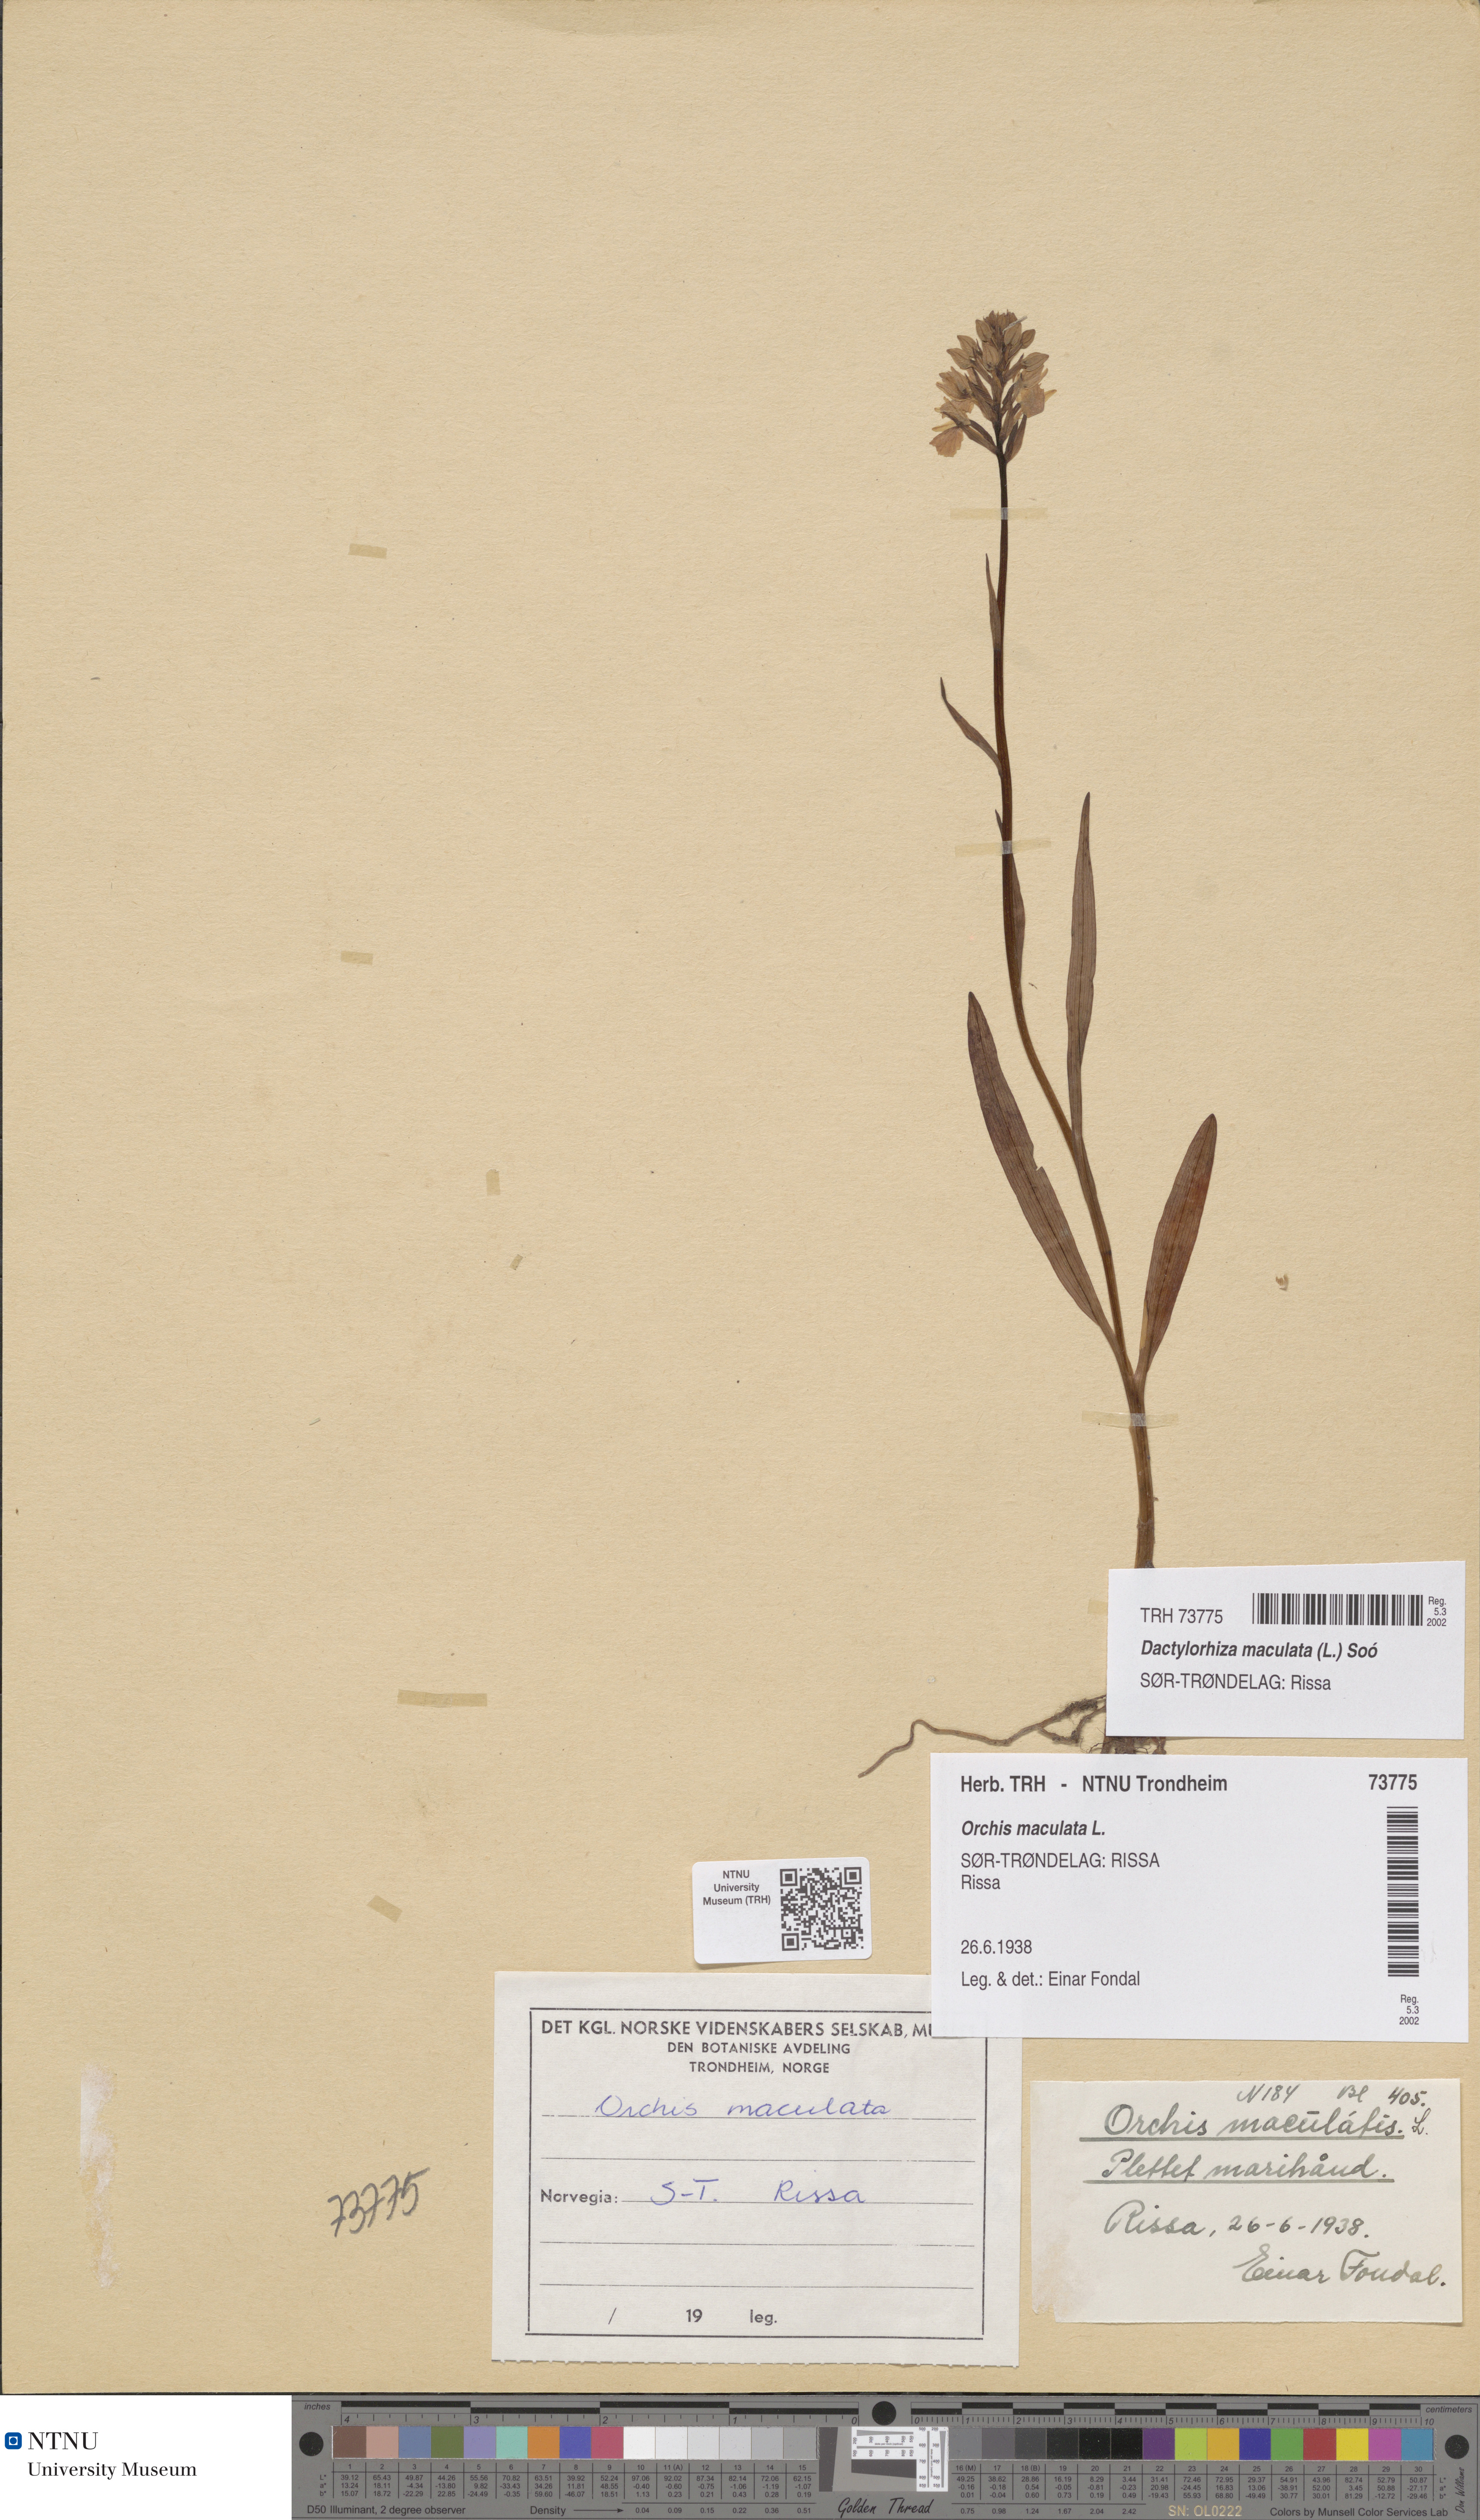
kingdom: Plantae
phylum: Tracheophyta
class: Liliopsida
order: Asparagales
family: Orchidaceae
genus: Dactylorhiza
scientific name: Dactylorhiza maculata
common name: Heath spotted-orchid
